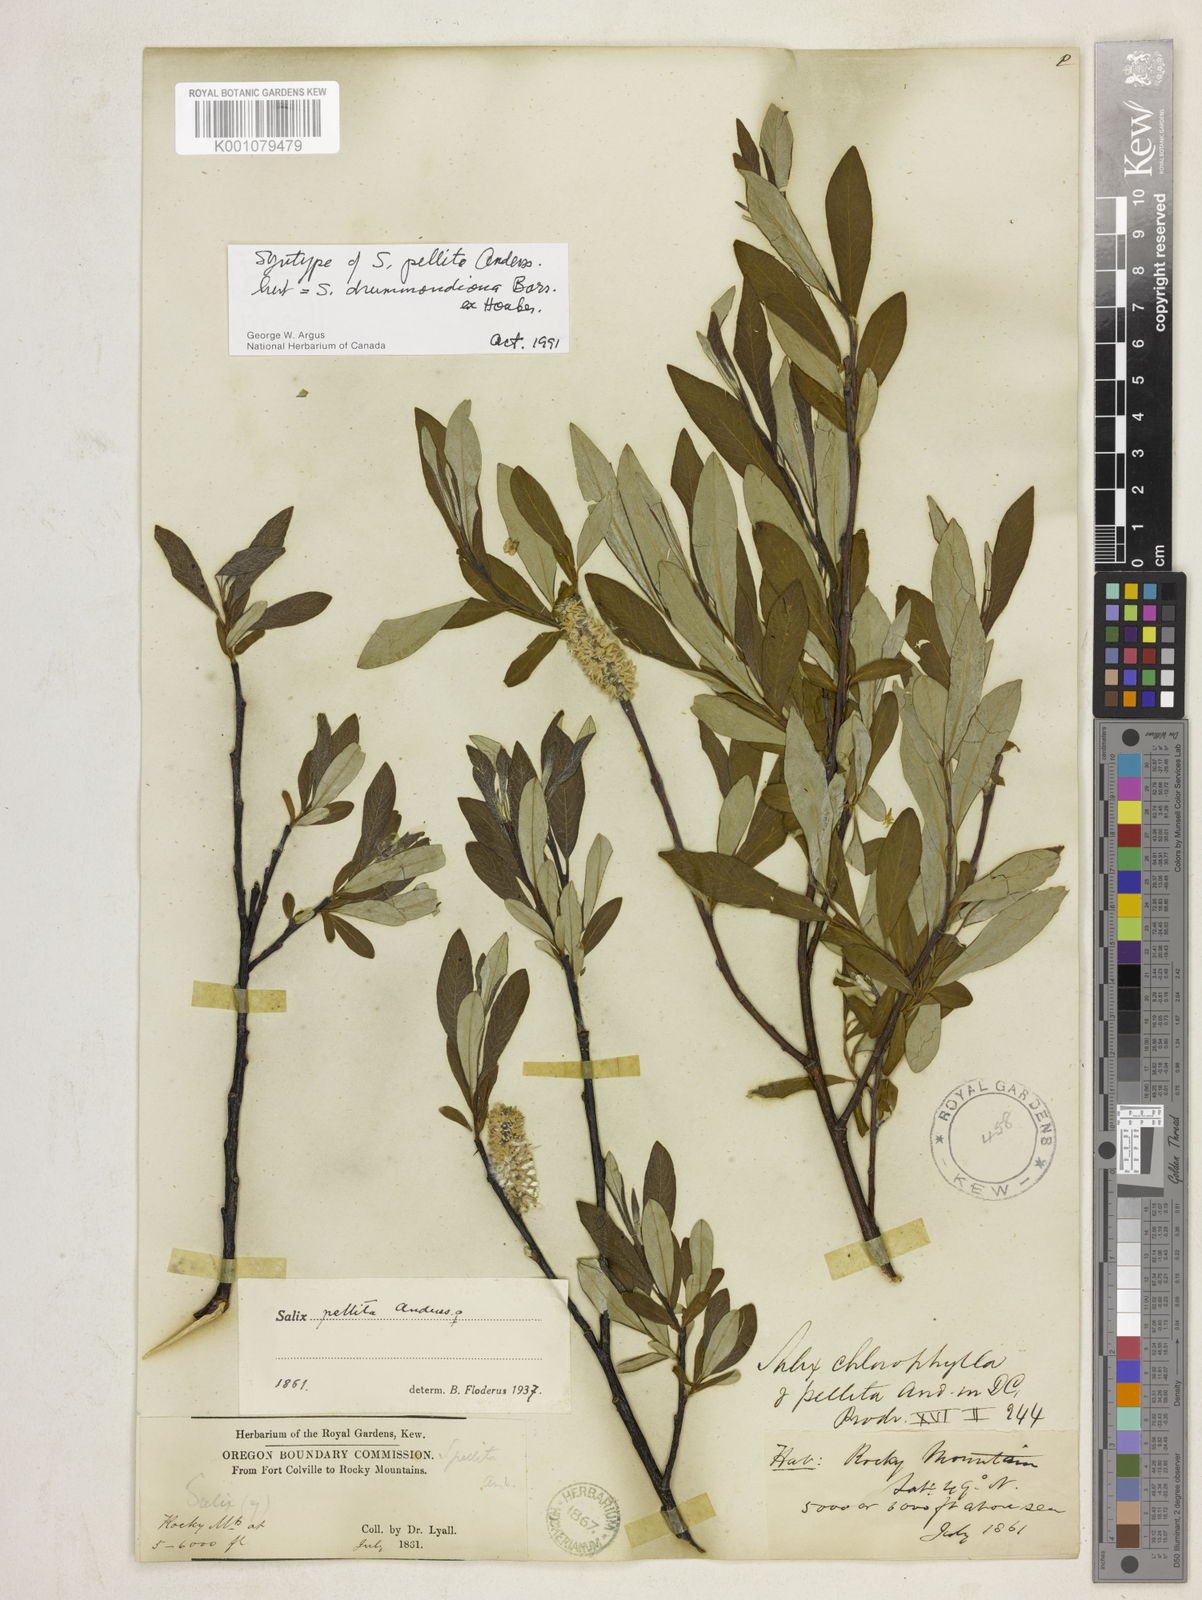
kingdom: Plantae
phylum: Tracheophyta
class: Magnoliopsida
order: Malpighiales
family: Salicaceae
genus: Salix
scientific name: Salix
